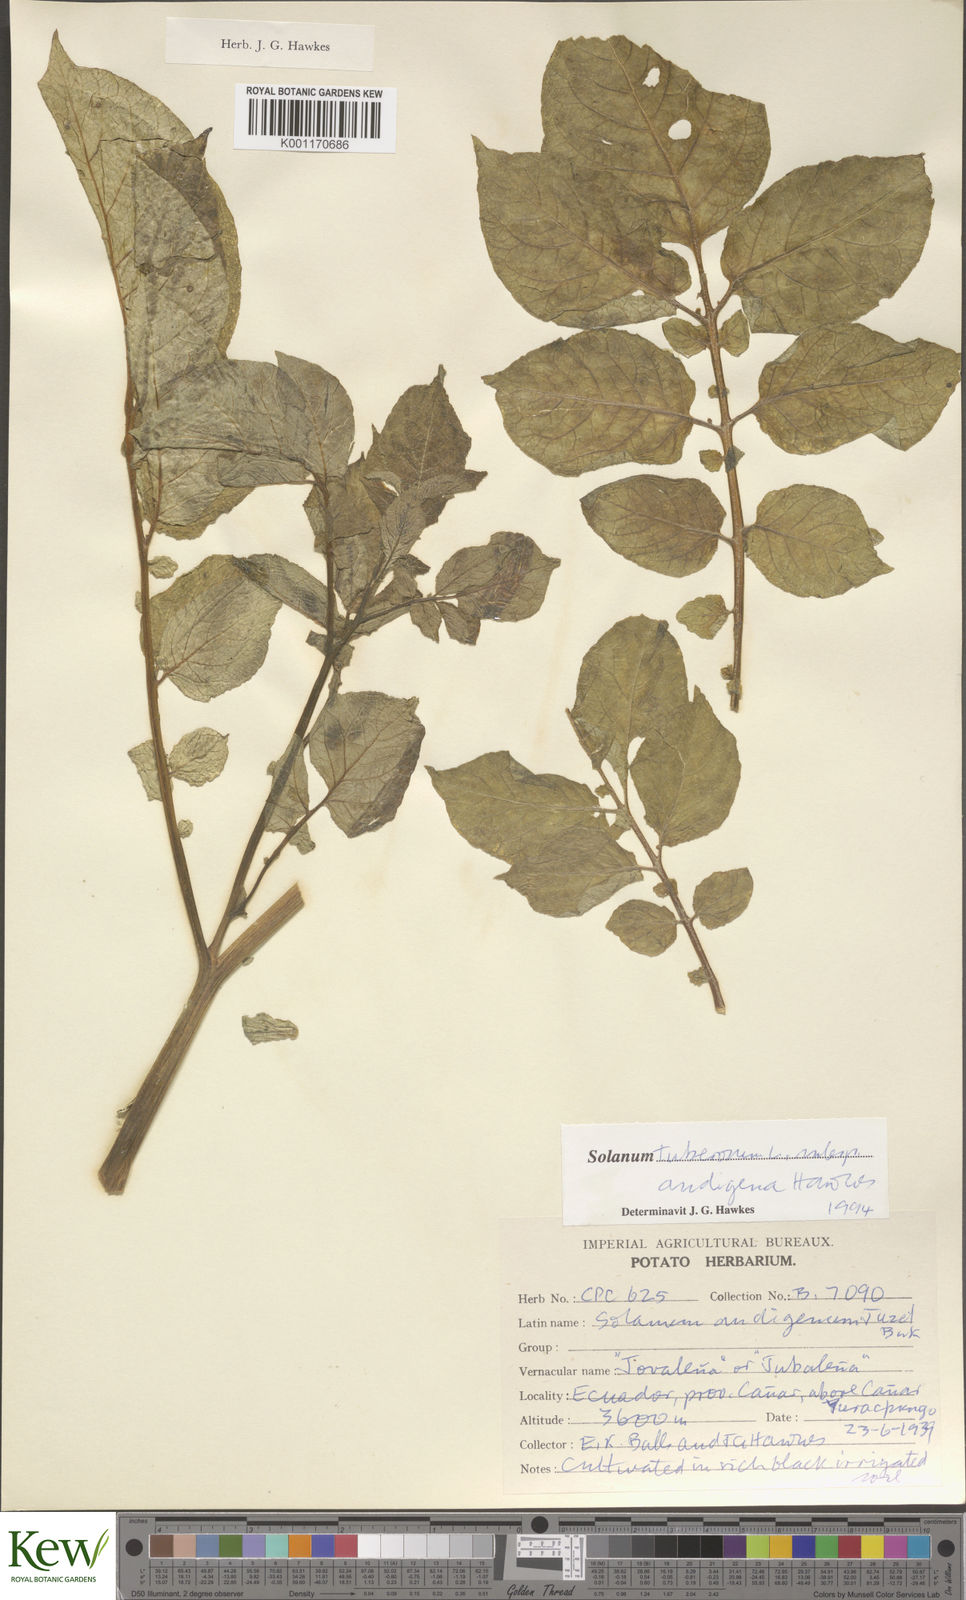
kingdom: Plantae
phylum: Tracheophyta
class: Magnoliopsida
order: Solanales
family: Solanaceae
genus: Solanum
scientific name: Solanum tuberosum
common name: Potato
